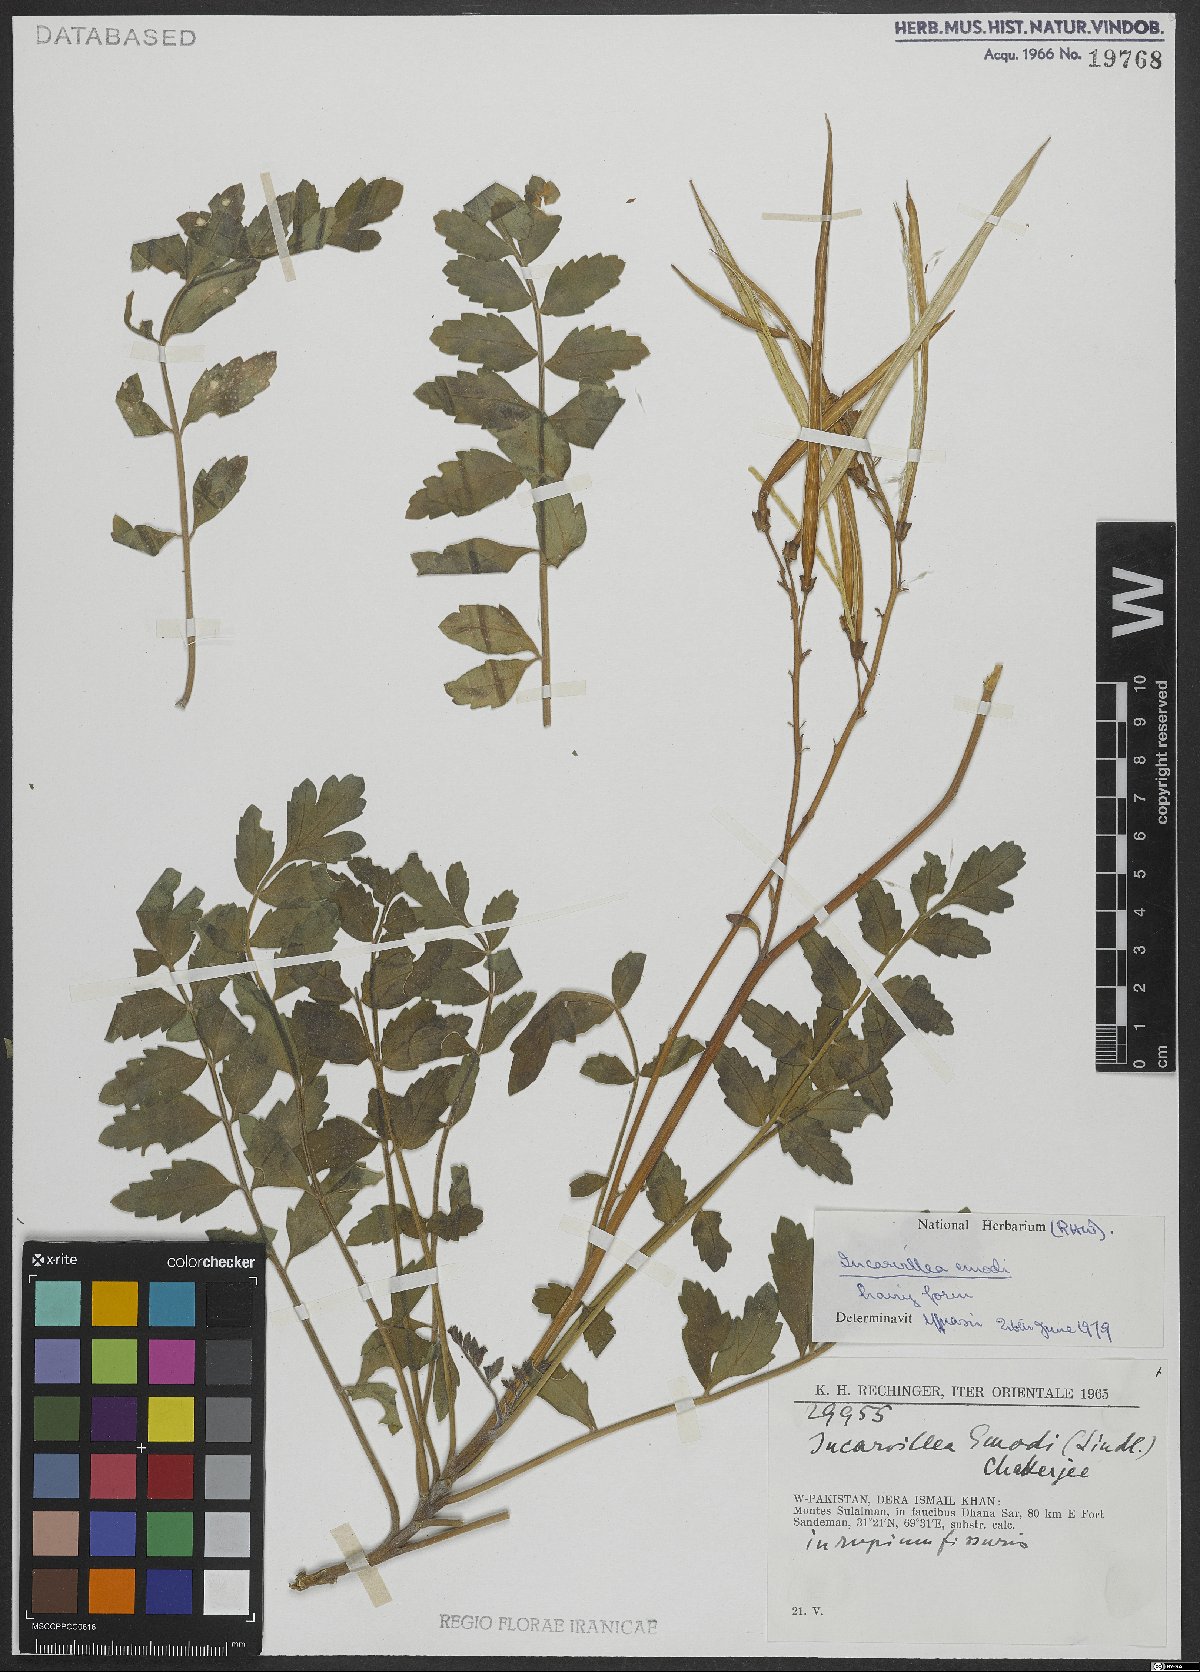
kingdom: Plantae
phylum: Tracheophyta
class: Magnoliopsida
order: Lamiales
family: Bignoniaceae
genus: Incarvillea
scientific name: Incarvillea emodi
